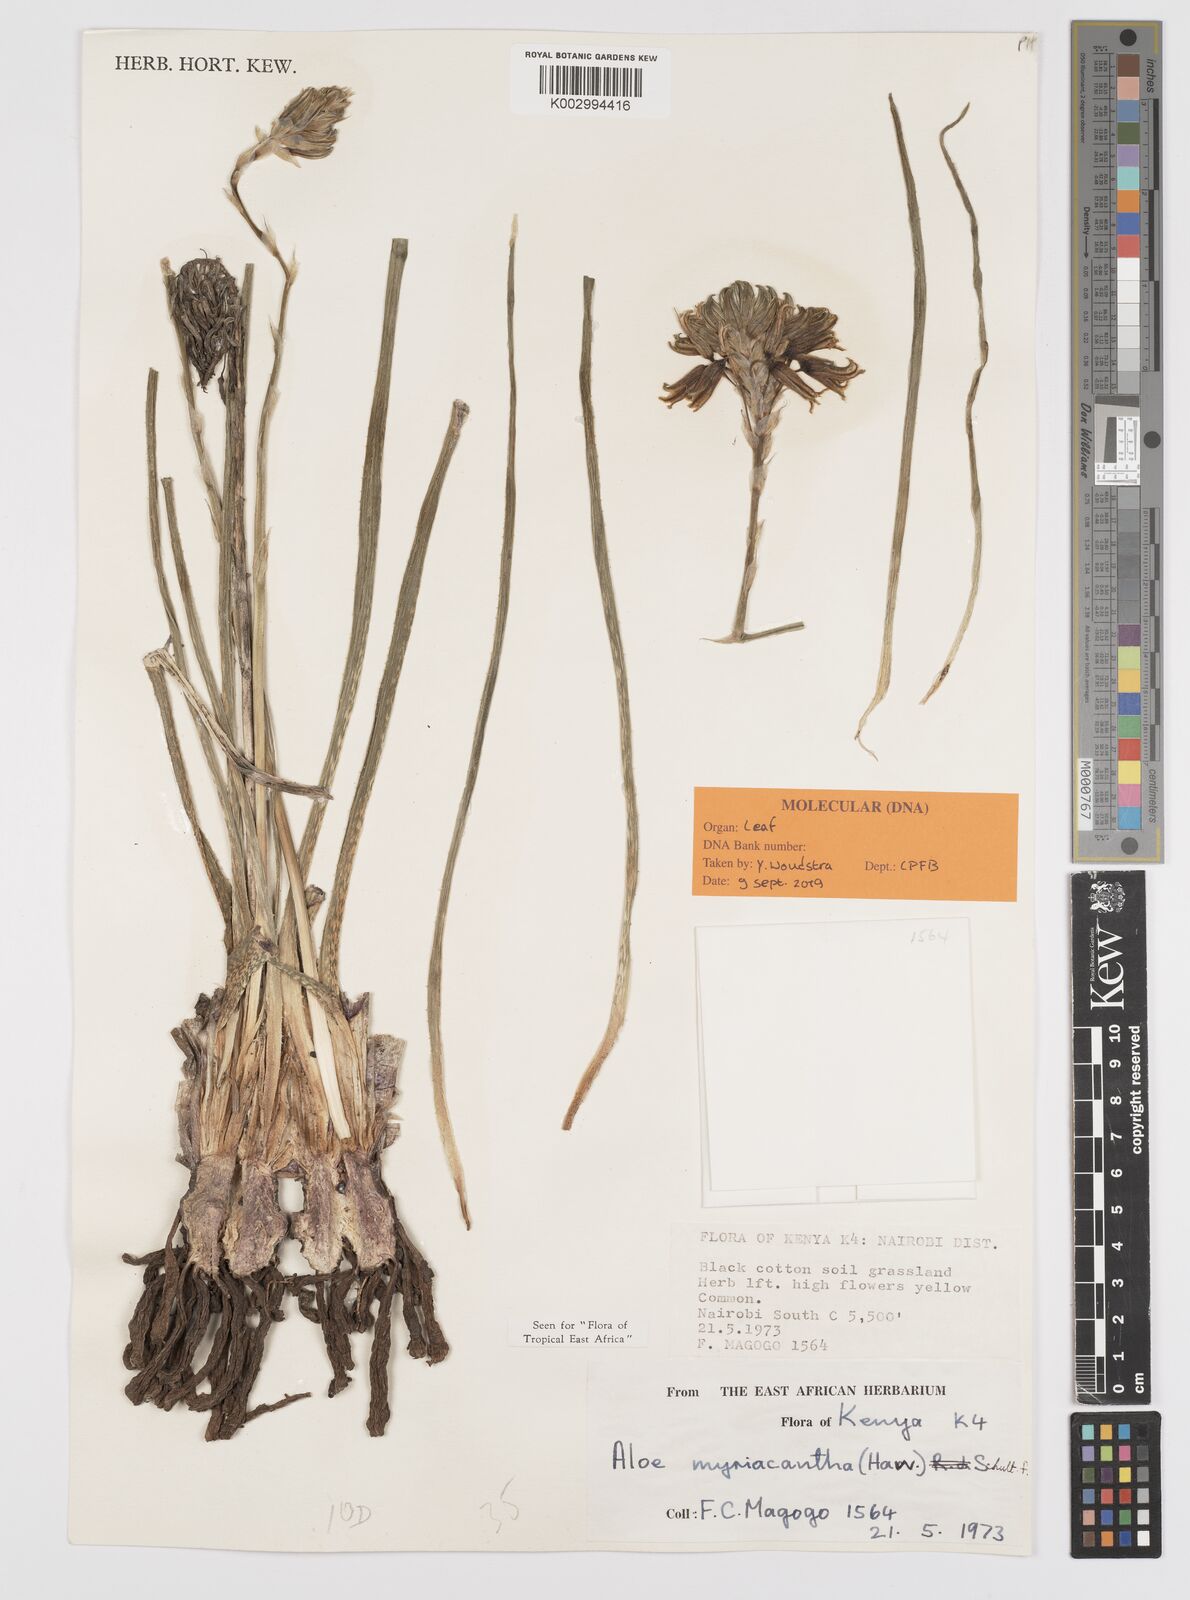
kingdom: Plantae
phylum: Tracheophyta
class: Liliopsida
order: Asparagales
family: Asphodelaceae
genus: Aloe
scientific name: Aloe myriacantha
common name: Grass aloe
